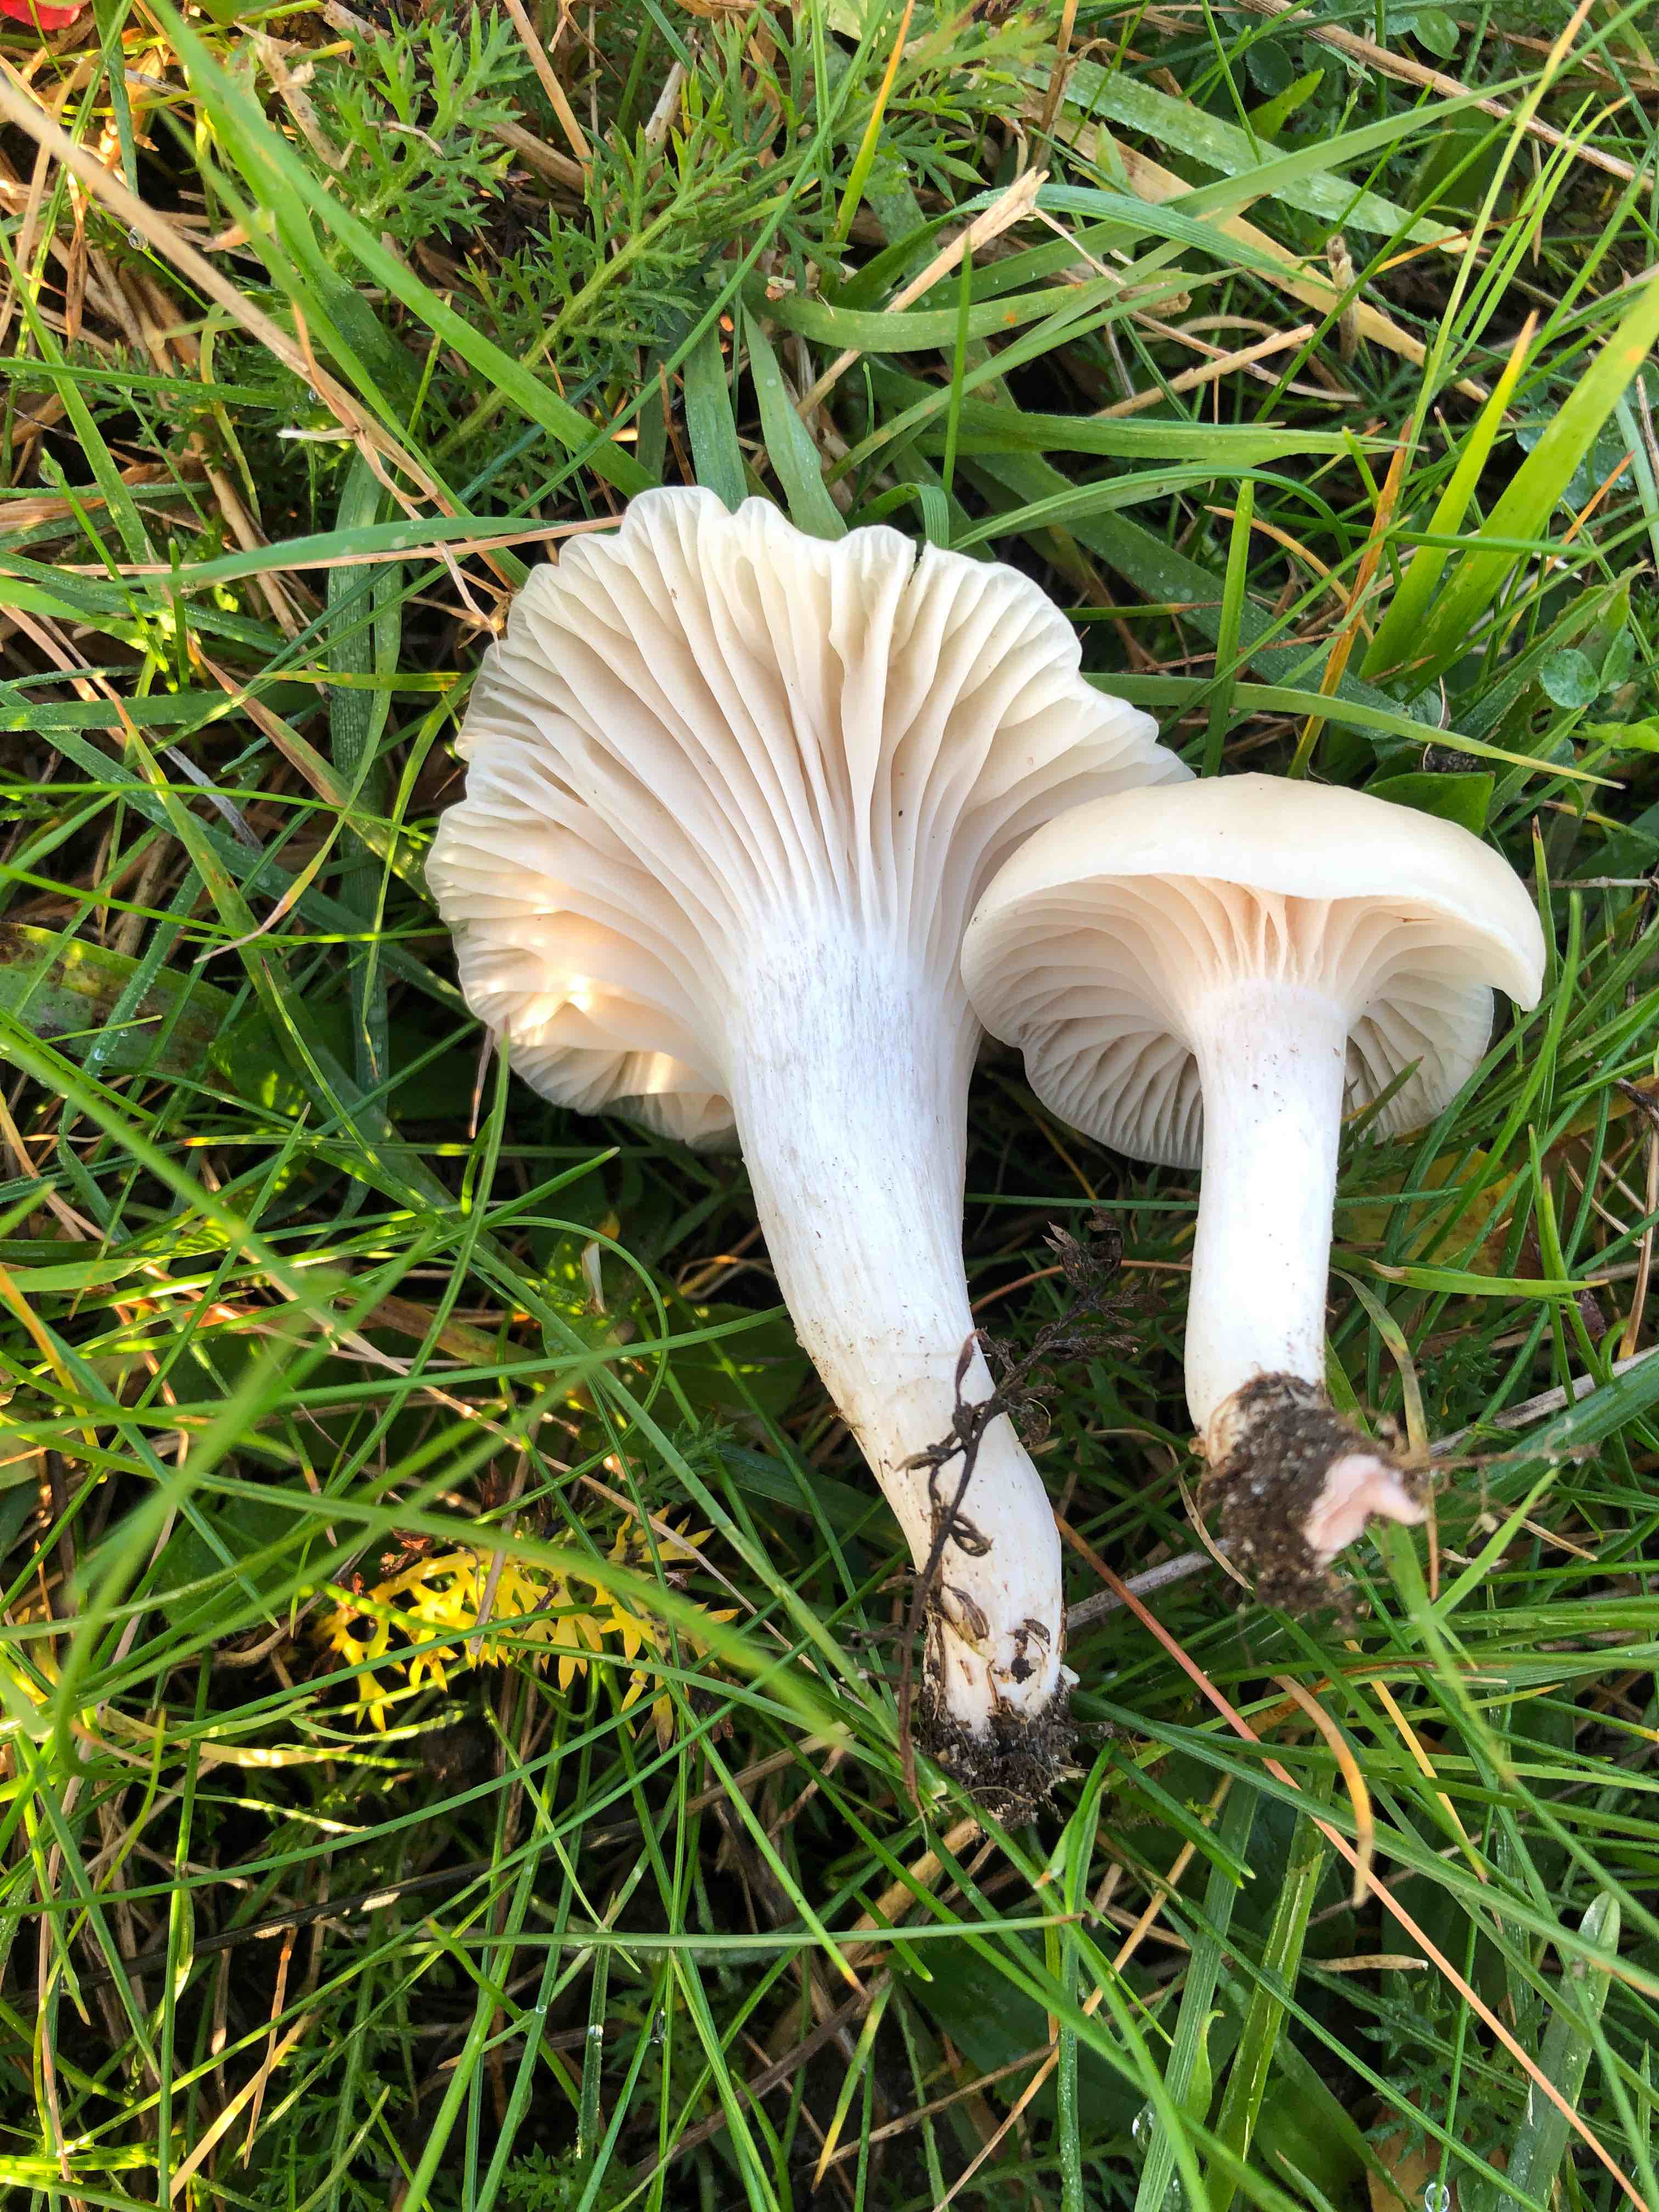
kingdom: Fungi
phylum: Basidiomycota
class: Agaricomycetes
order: Agaricales
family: Hygrophoraceae
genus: Cuphophyllus
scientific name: Cuphophyllus
